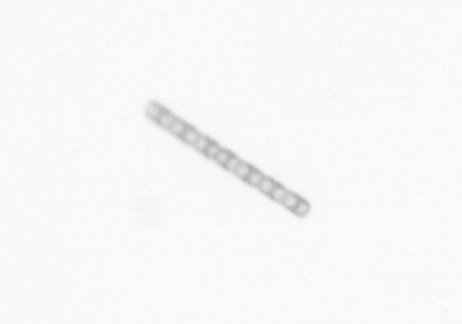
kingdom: Chromista
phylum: Ochrophyta
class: Bacillariophyceae
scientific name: Bacillariophyceae
